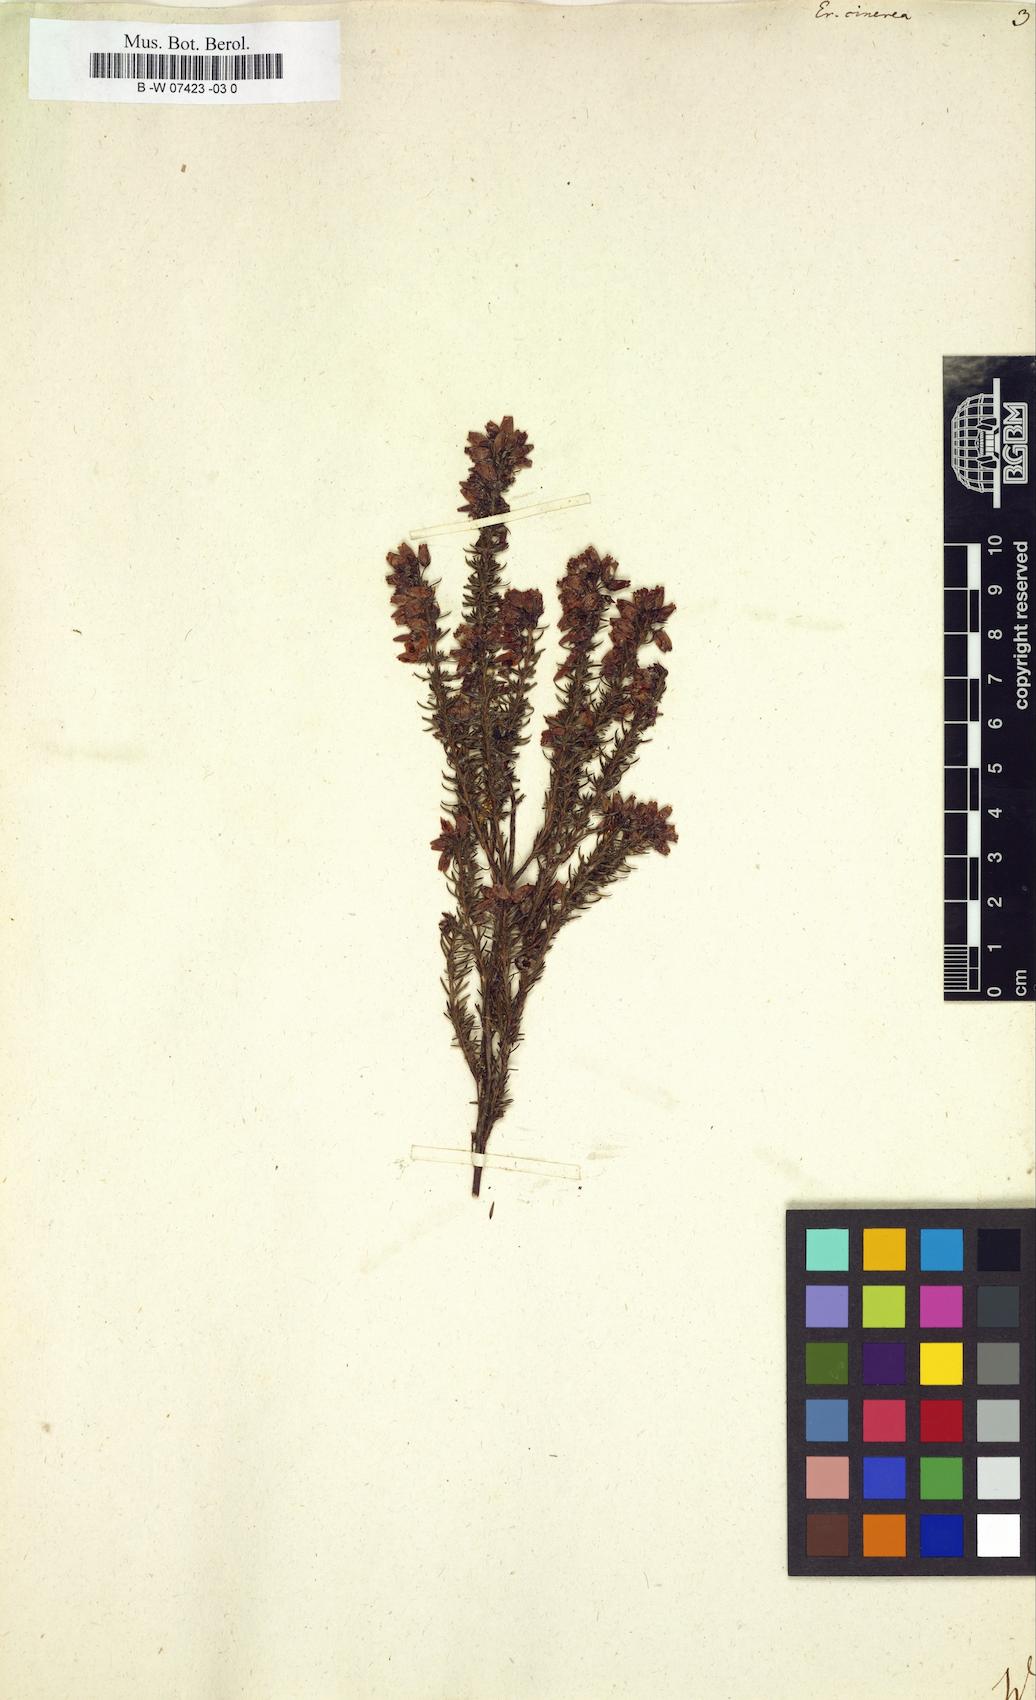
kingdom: Plantae
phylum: Tracheophyta
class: Magnoliopsida
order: Ericales
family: Ericaceae
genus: Erica
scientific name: Erica cinerea
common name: Bell heather
